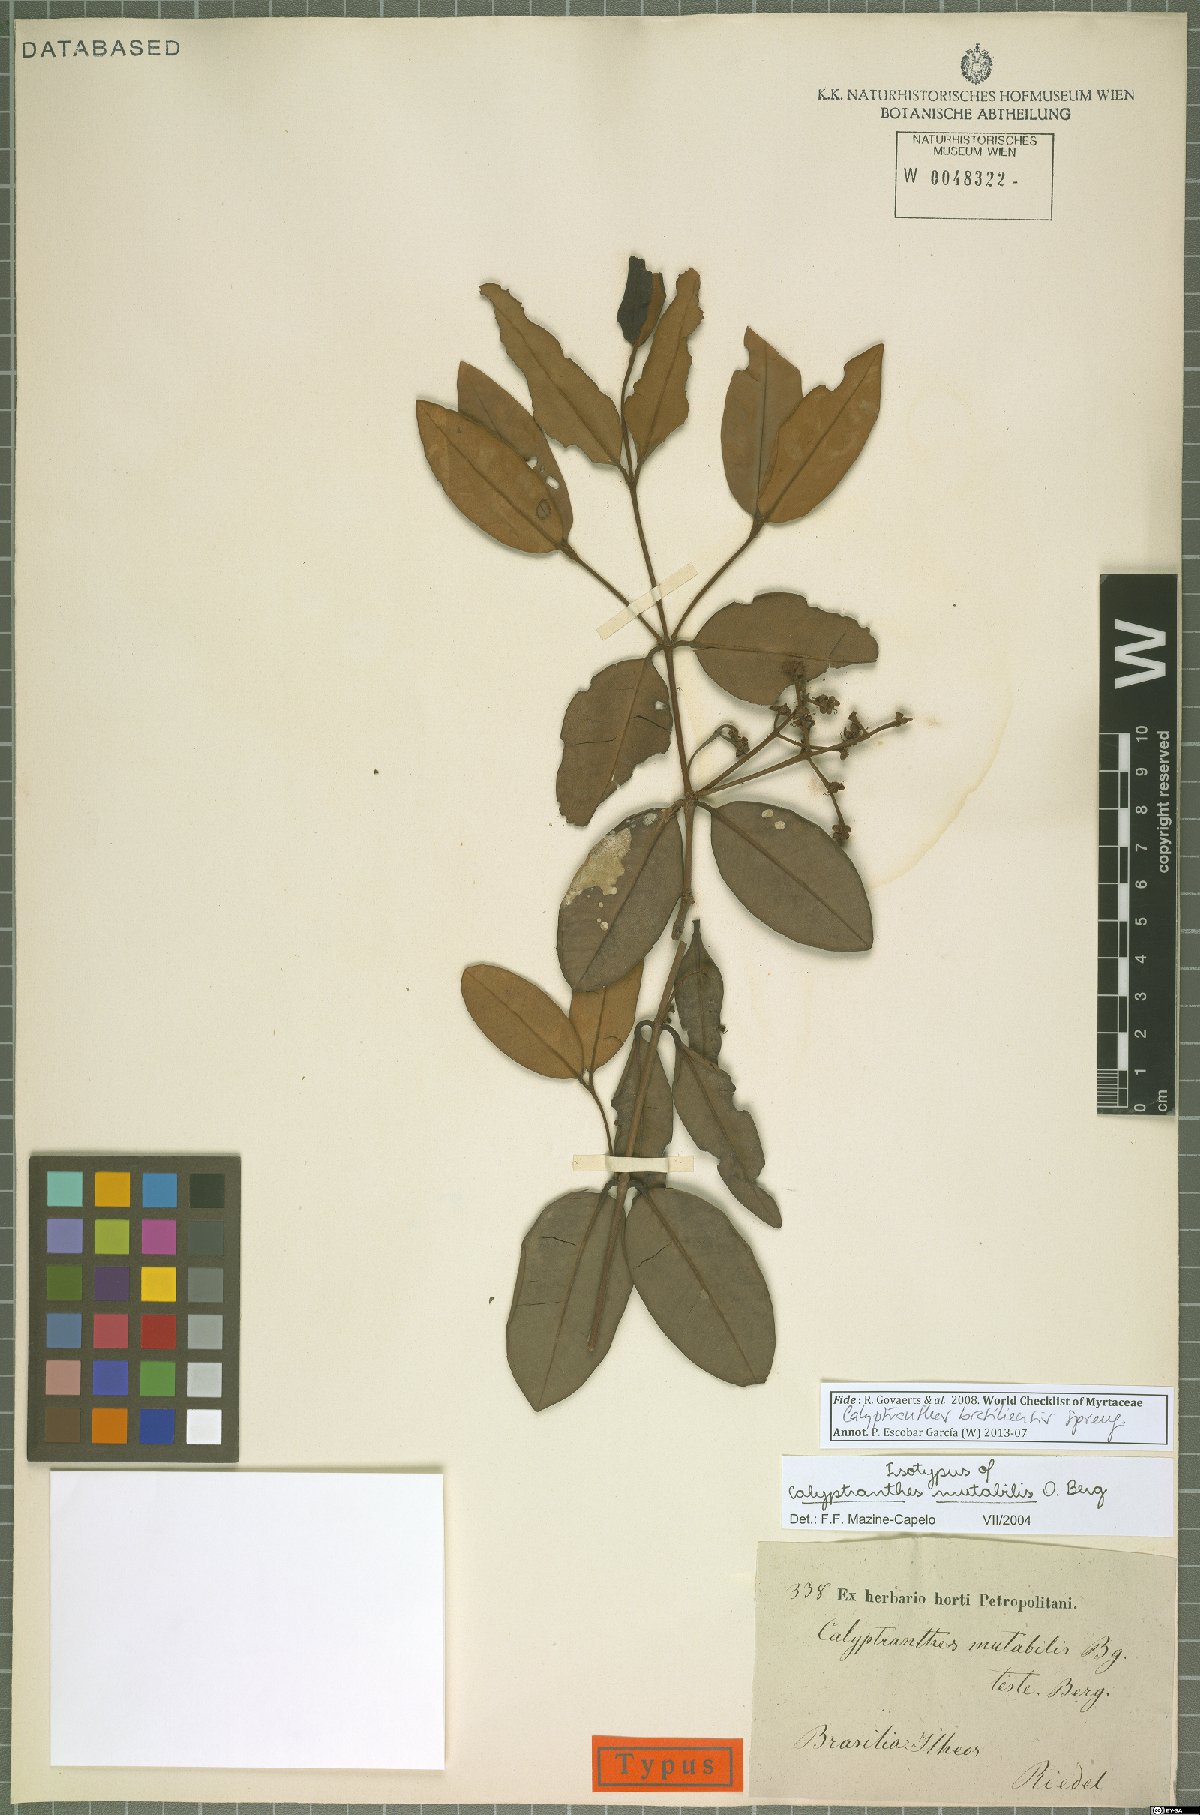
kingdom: Plantae
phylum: Tracheophyta
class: Magnoliopsida
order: Myrtales
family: Myrtaceae
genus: Myrcia
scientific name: Myrcia neobrasiliensis
